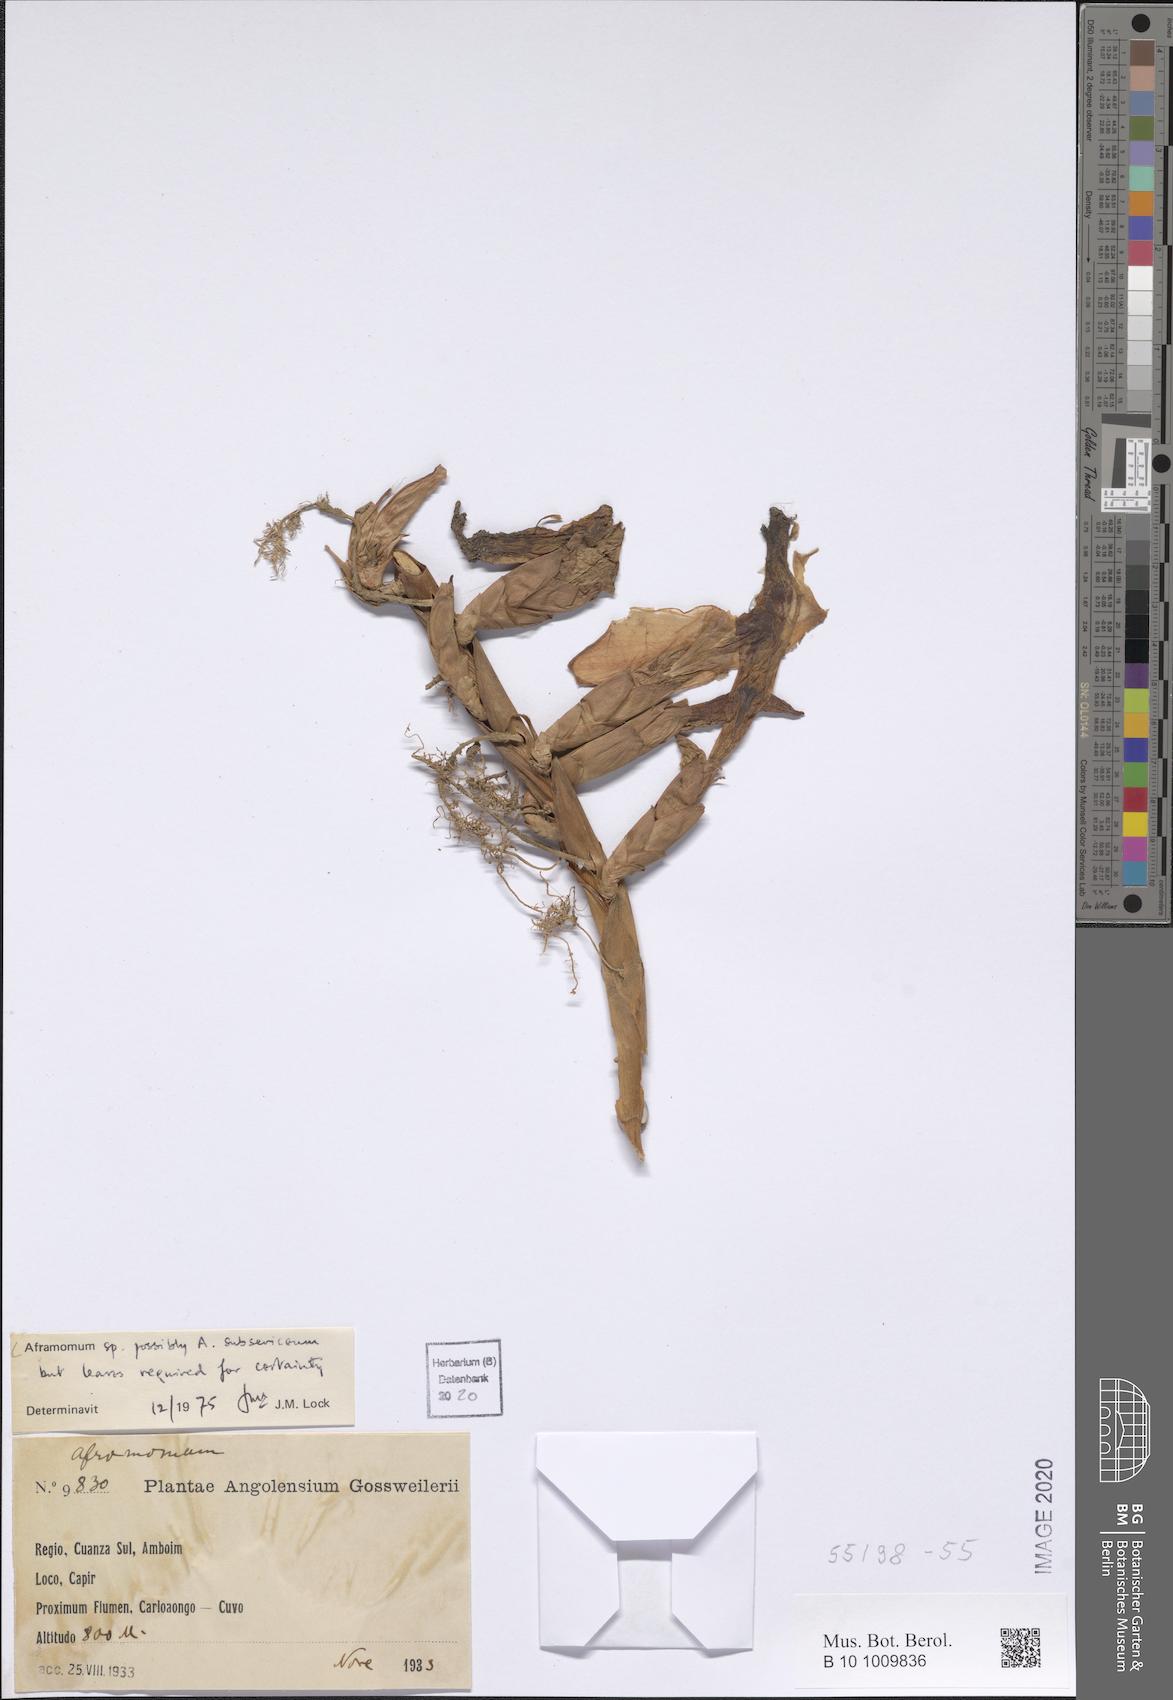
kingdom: Plantae
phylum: Tracheophyta
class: Liliopsida
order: Zingiberales
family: Zingiberaceae
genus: Aframomum
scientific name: Aframomum subsericeum
